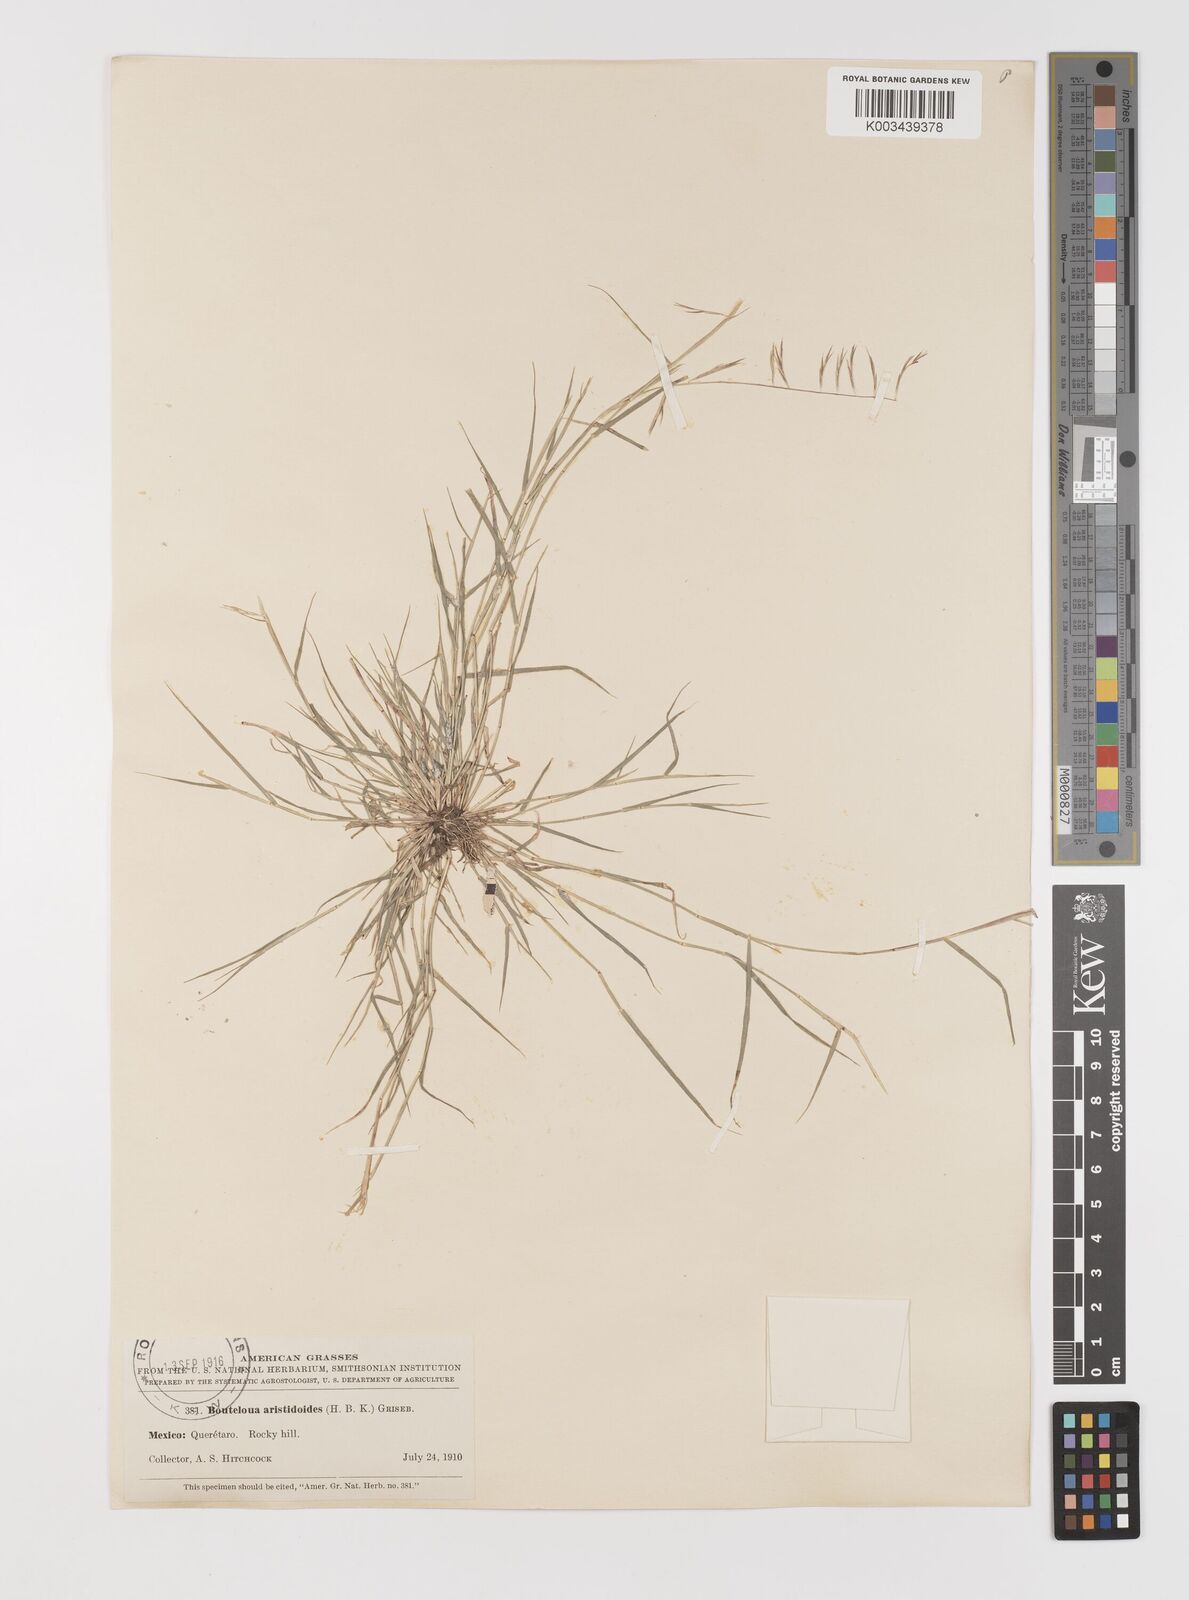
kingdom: Plantae
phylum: Tracheophyta
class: Liliopsida
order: Poales
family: Poaceae
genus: Bouteloua
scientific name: Bouteloua aristidoides
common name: Needle grama
